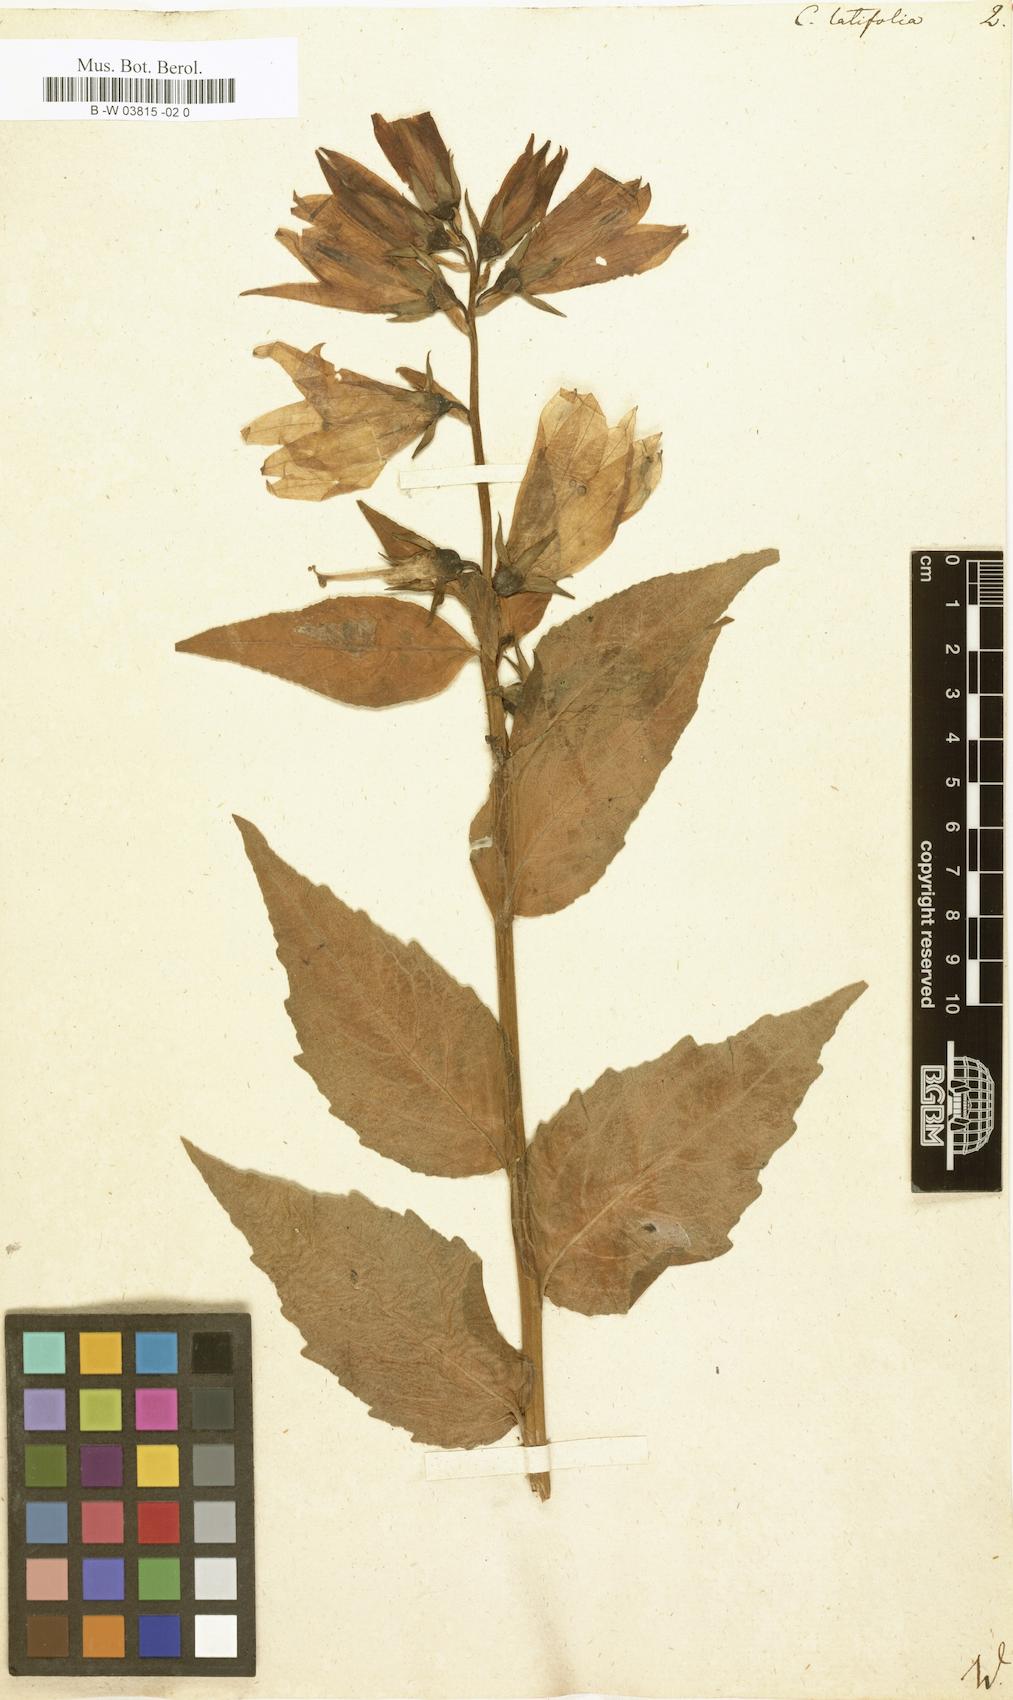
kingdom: Plantae
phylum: Tracheophyta
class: Magnoliopsida
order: Asterales
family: Campanulaceae
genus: Campanula
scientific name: Campanula latifolia
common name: Giant bellflower
